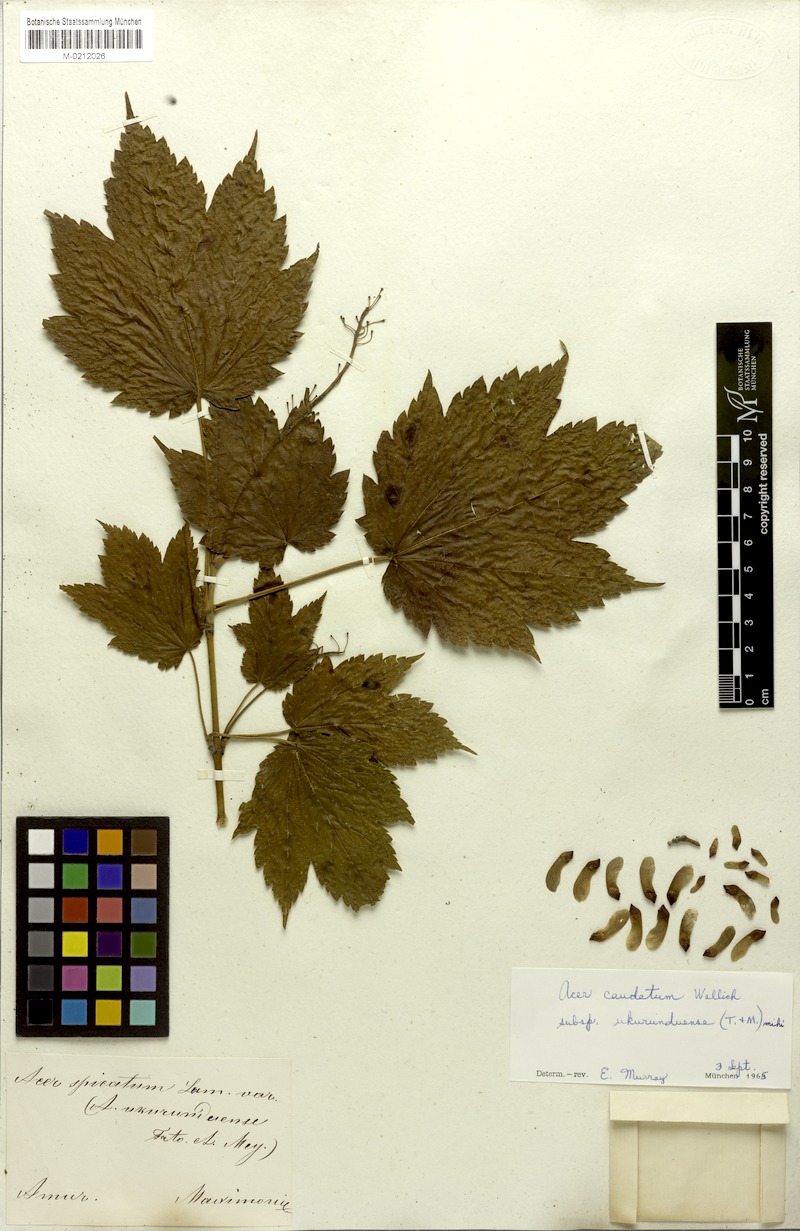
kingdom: Plantae
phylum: Tracheophyta
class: Magnoliopsida
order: Sapindales
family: Sapindaceae
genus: Acer
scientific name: Acer caudatum
